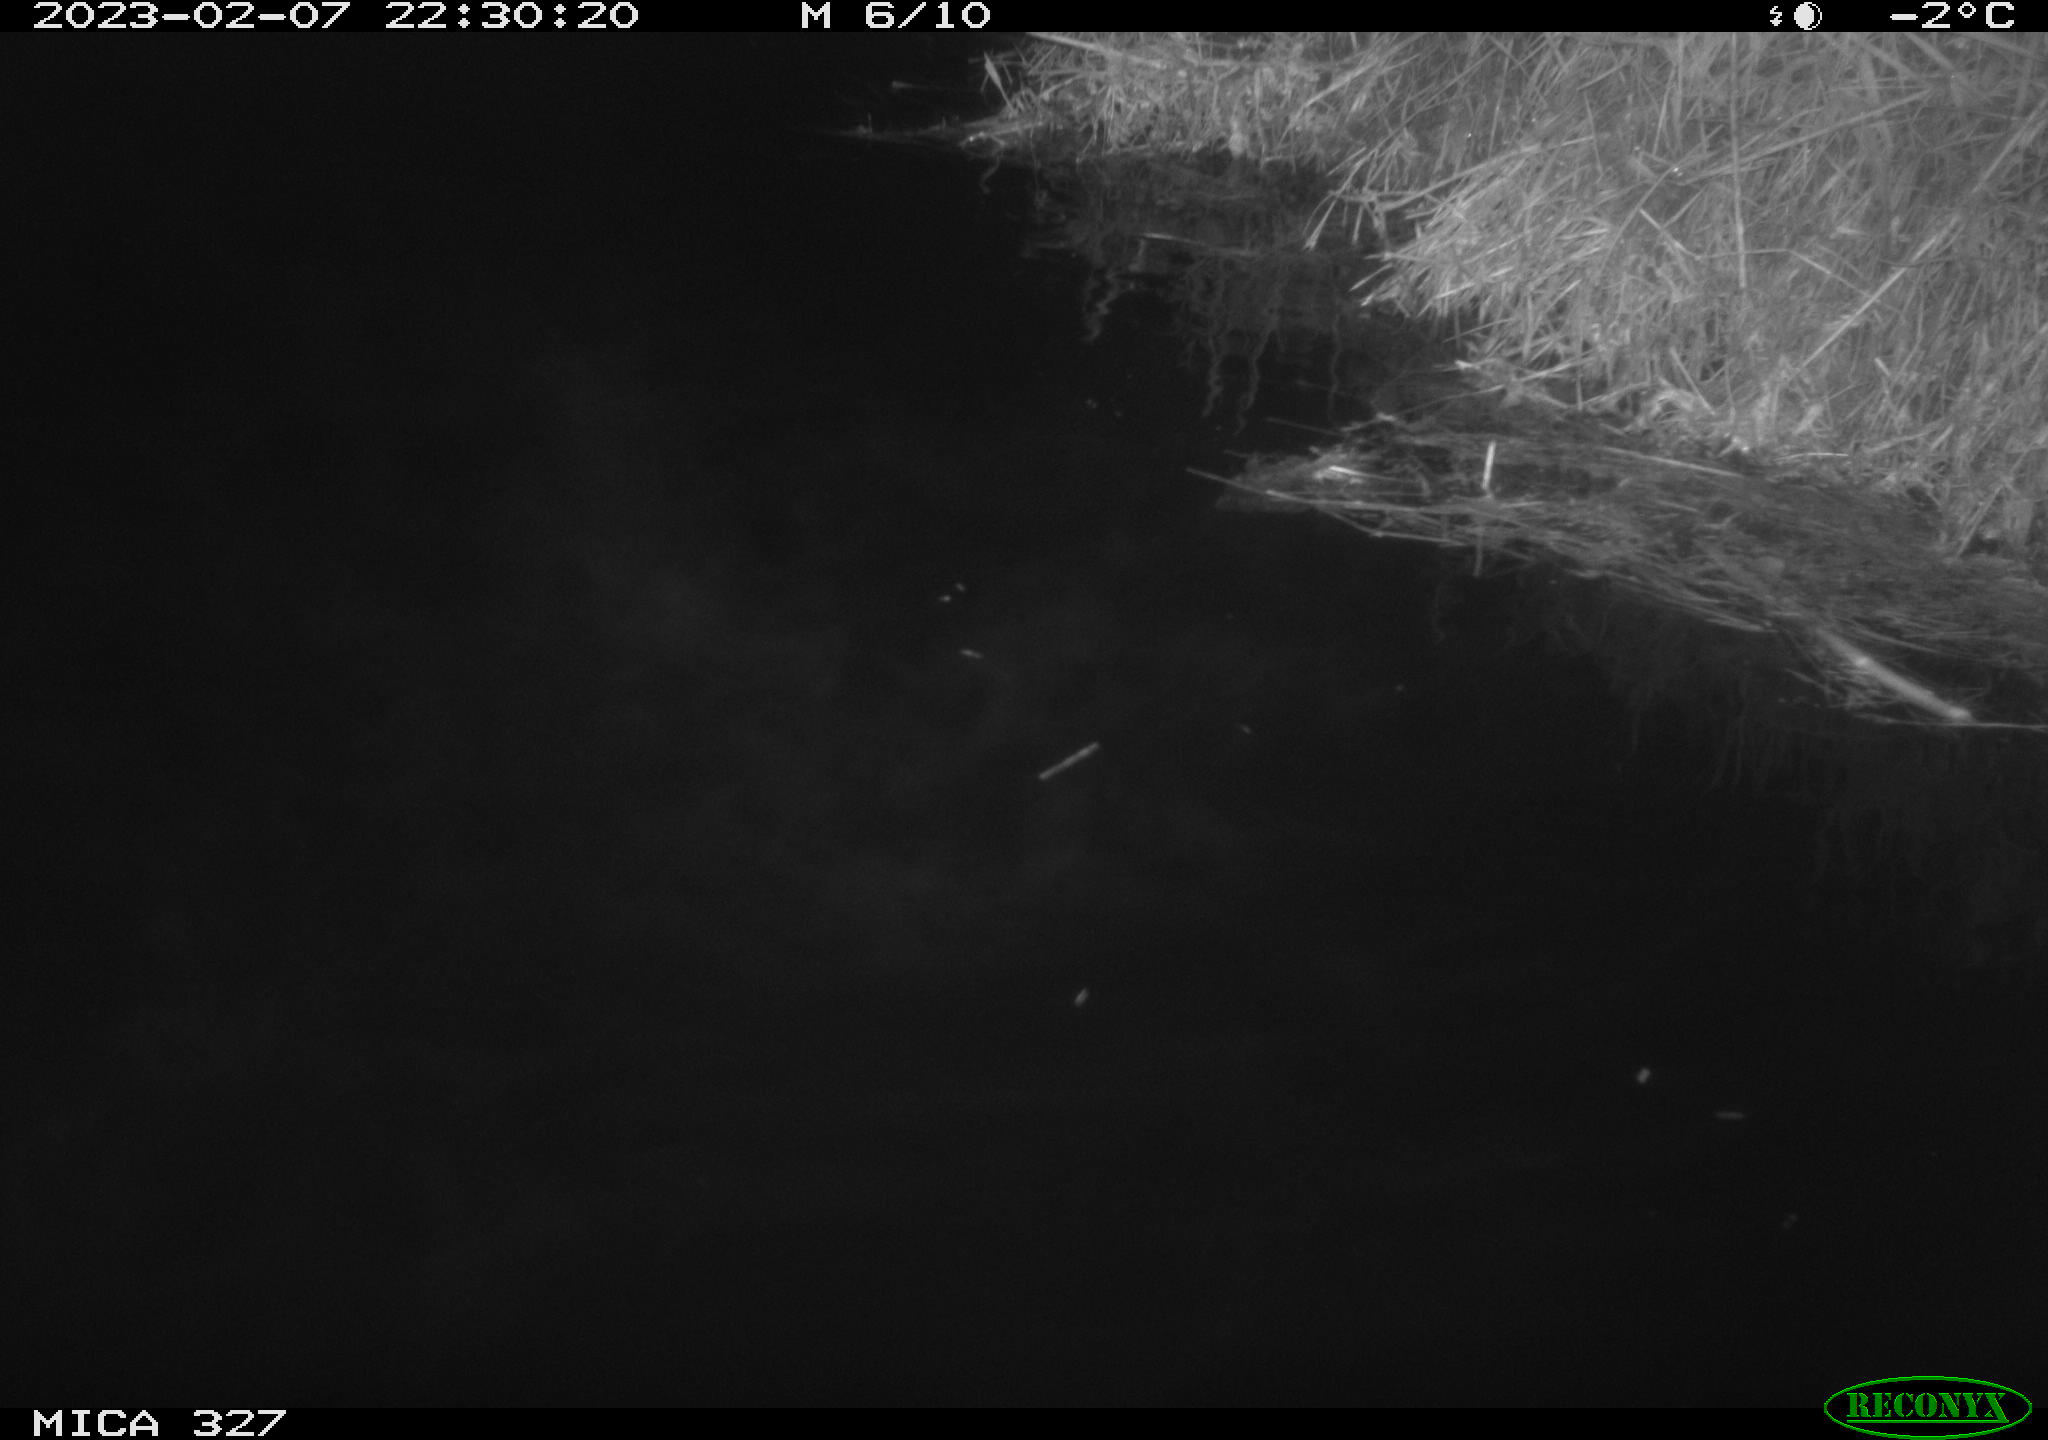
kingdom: Animalia
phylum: Chordata
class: Mammalia
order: Rodentia
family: Cricetidae
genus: Ondatra
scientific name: Ondatra zibethicus
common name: Muskrat
